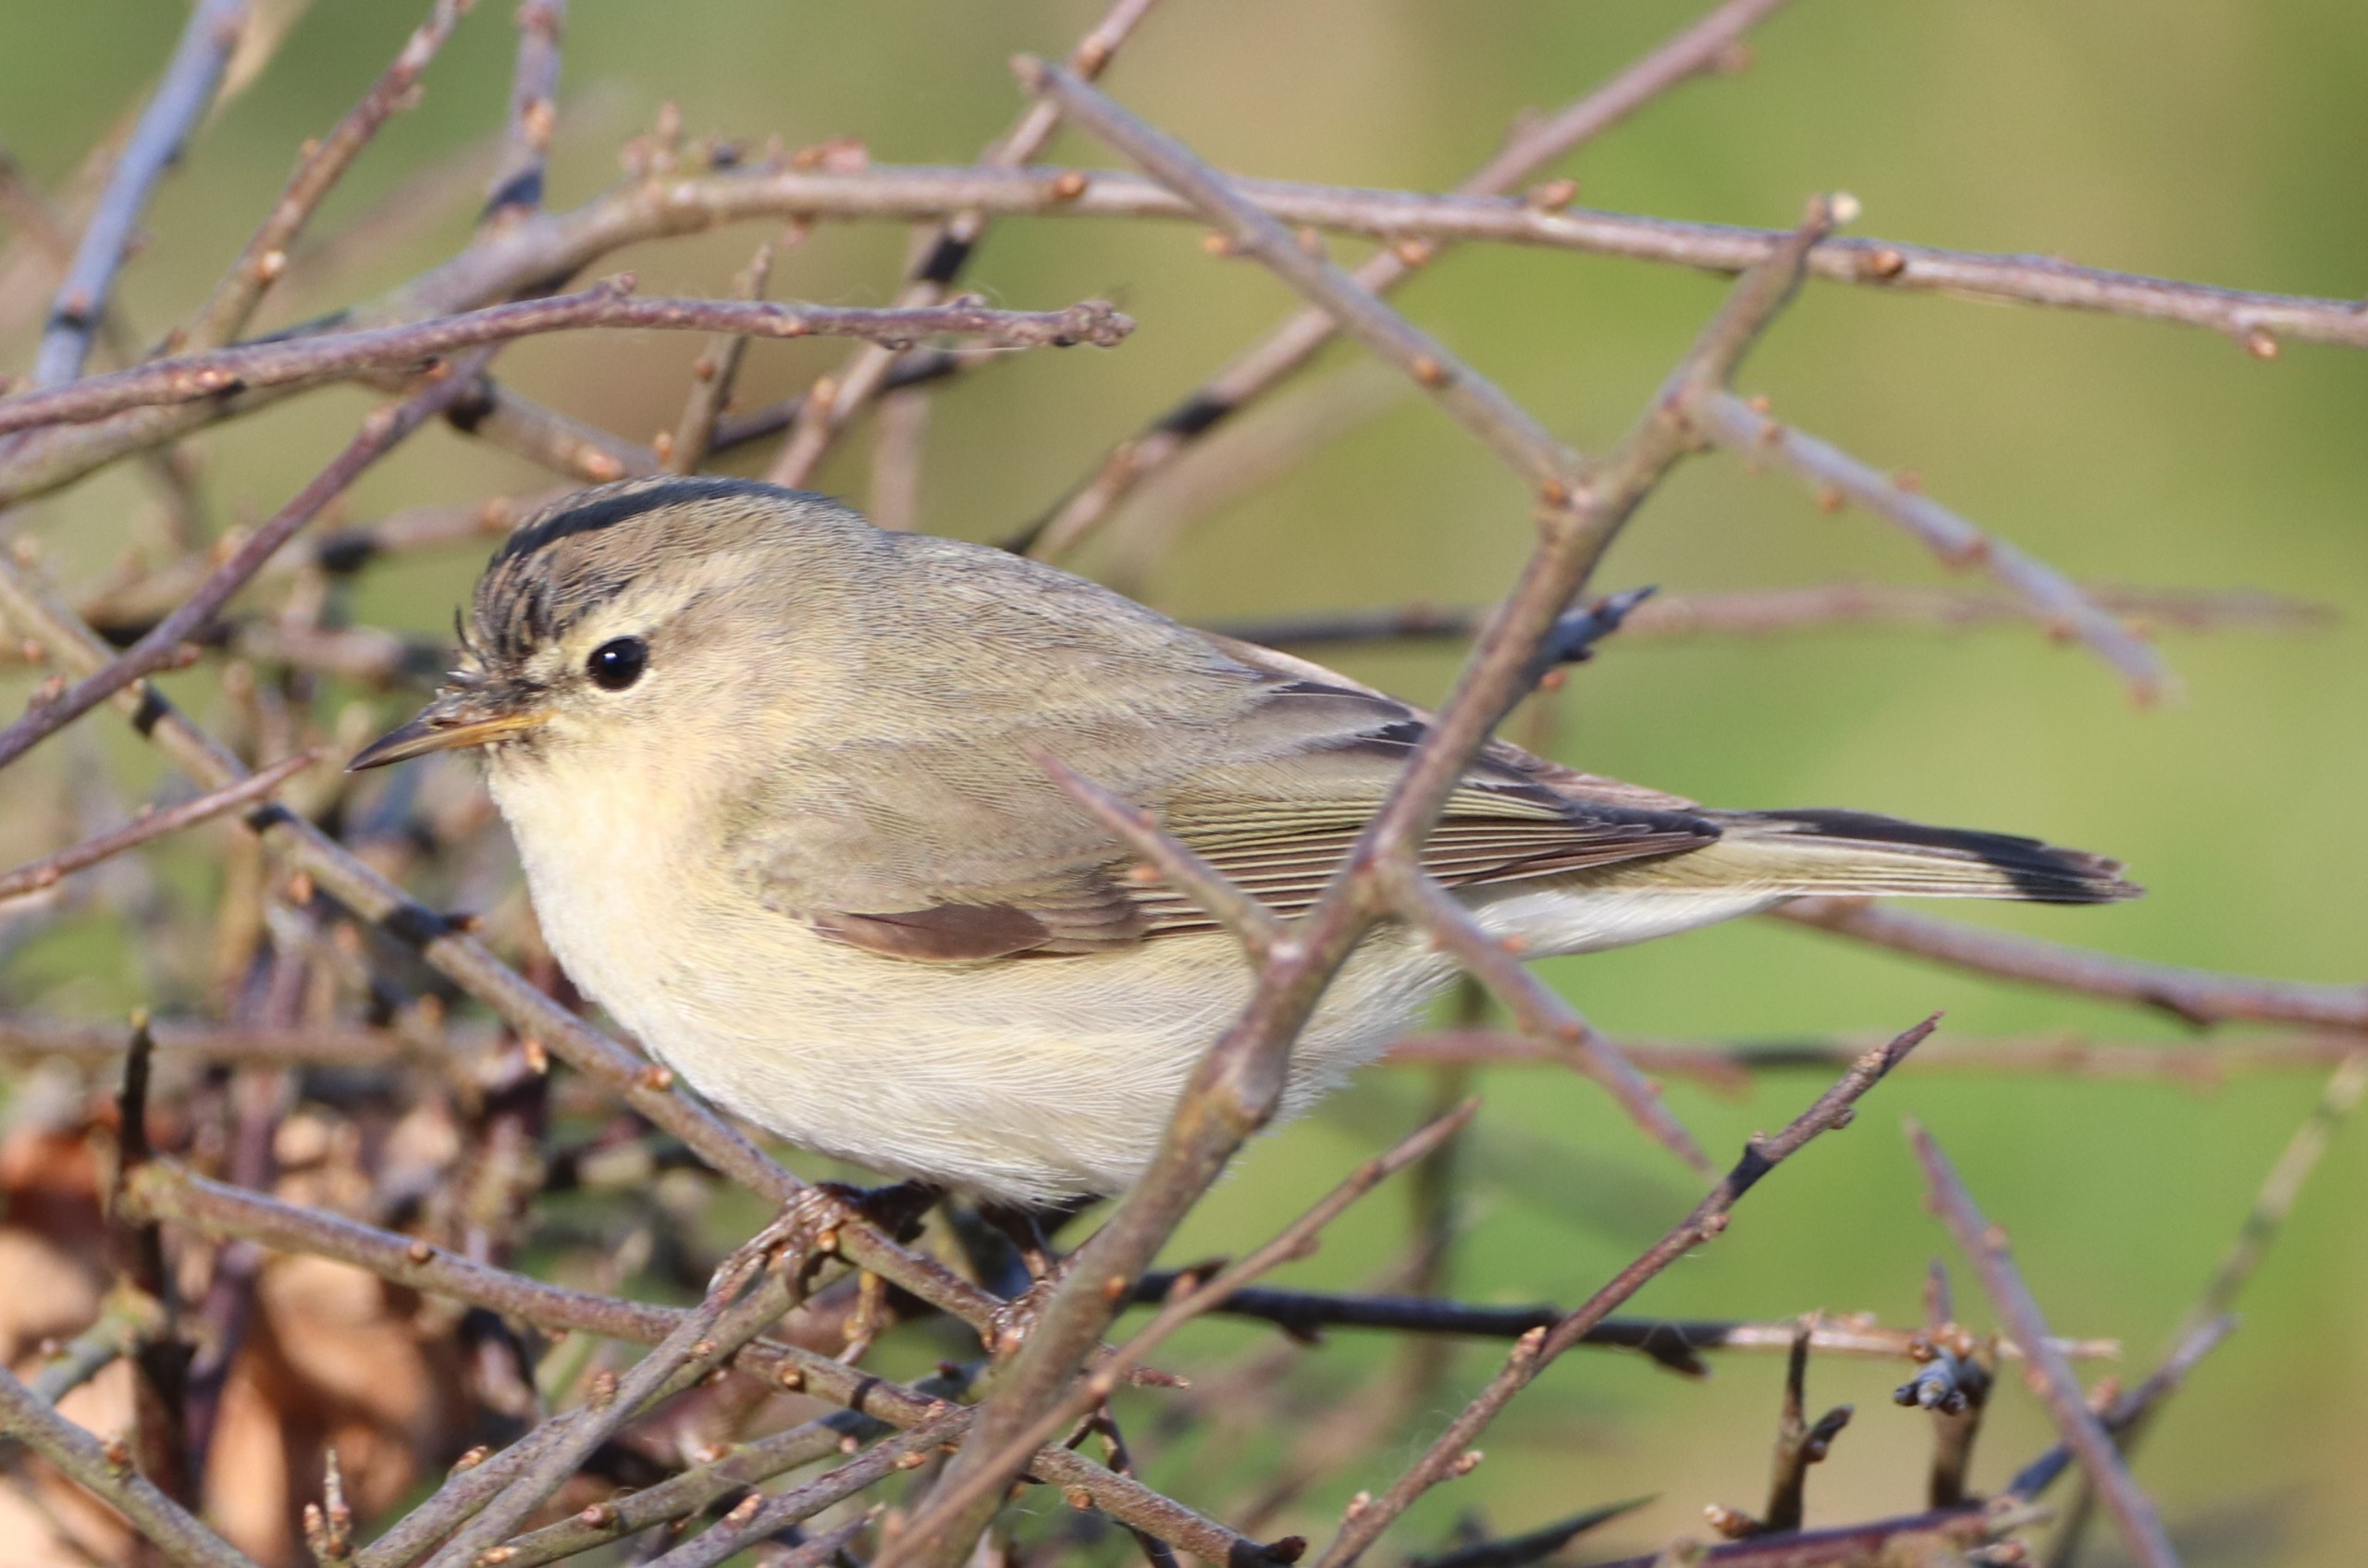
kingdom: Animalia
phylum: Chordata
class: Aves
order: Passeriformes
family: Phylloscopidae
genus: Phylloscopus
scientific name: Phylloscopus collybita
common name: Gransanger
